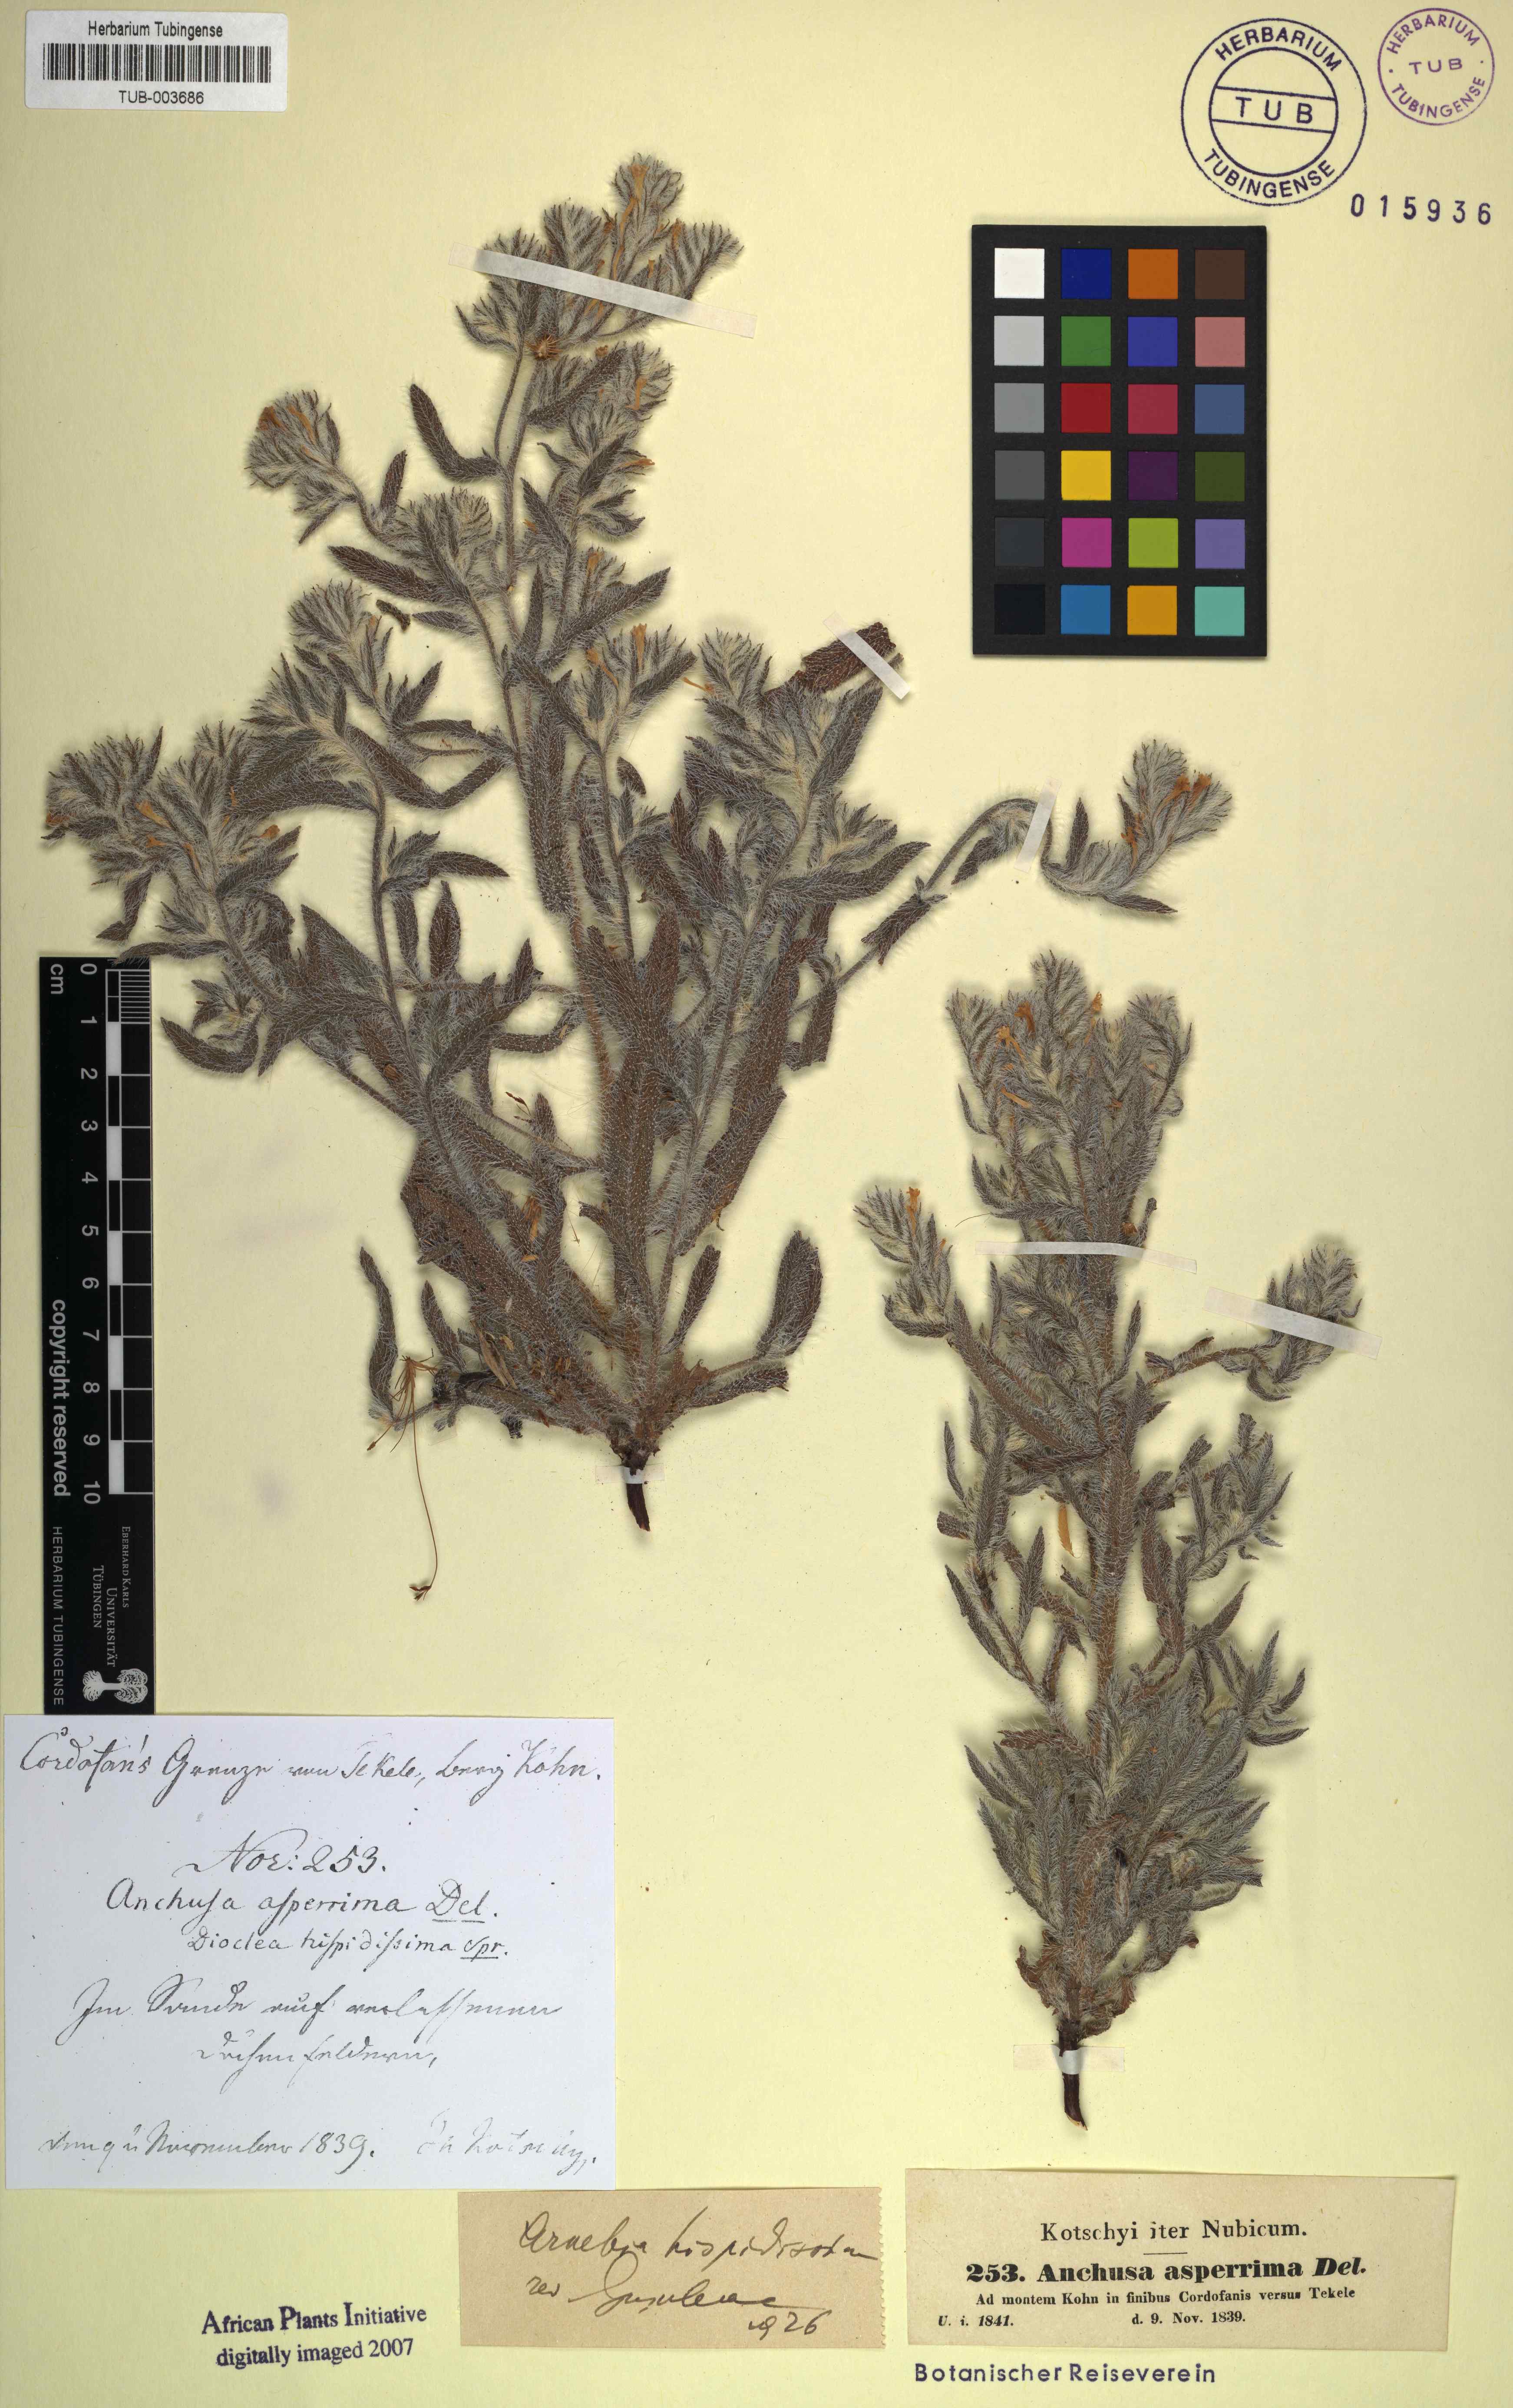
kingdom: Plantae
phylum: Tracheophyta
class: Magnoliopsida
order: Boraginales
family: Boraginaceae
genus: Arnebia
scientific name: Arnebia hispidissima
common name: Arabian-primrose
